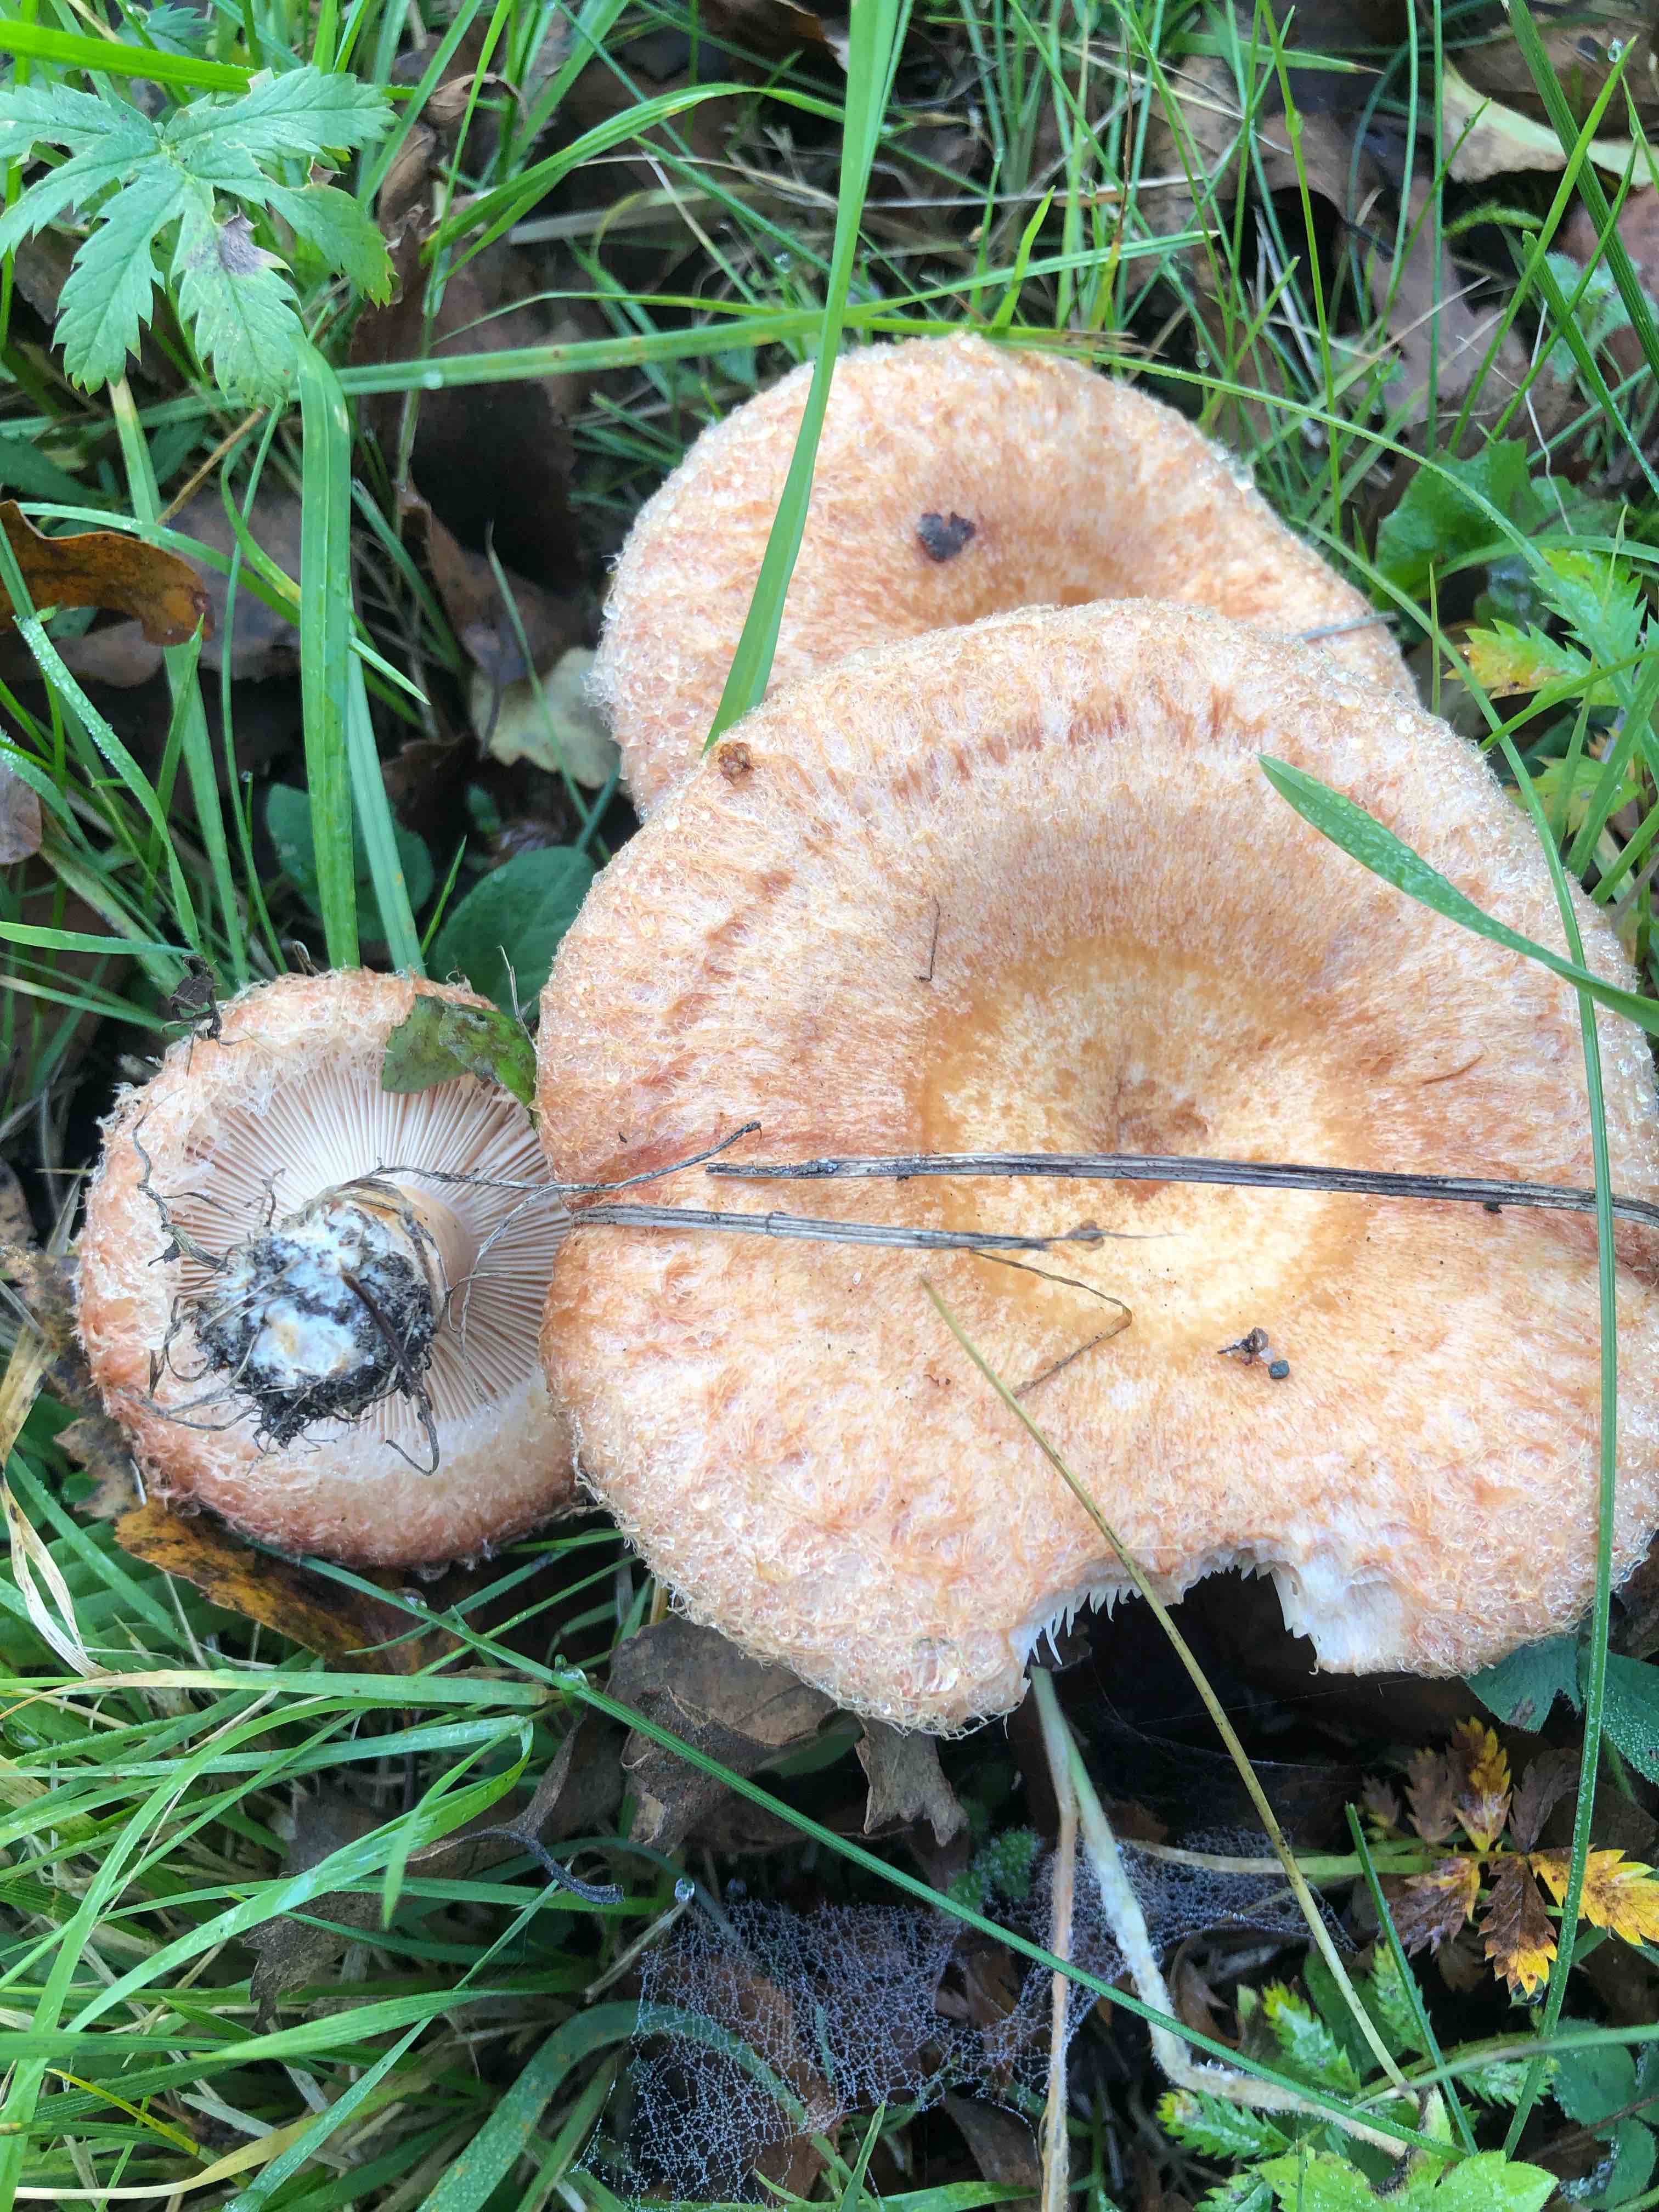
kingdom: Fungi
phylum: Basidiomycota
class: Agaricomycetes
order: Russulales
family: Russulaceae
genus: Lactarius
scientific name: Lactarius torminosus
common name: skægget mælkehat
